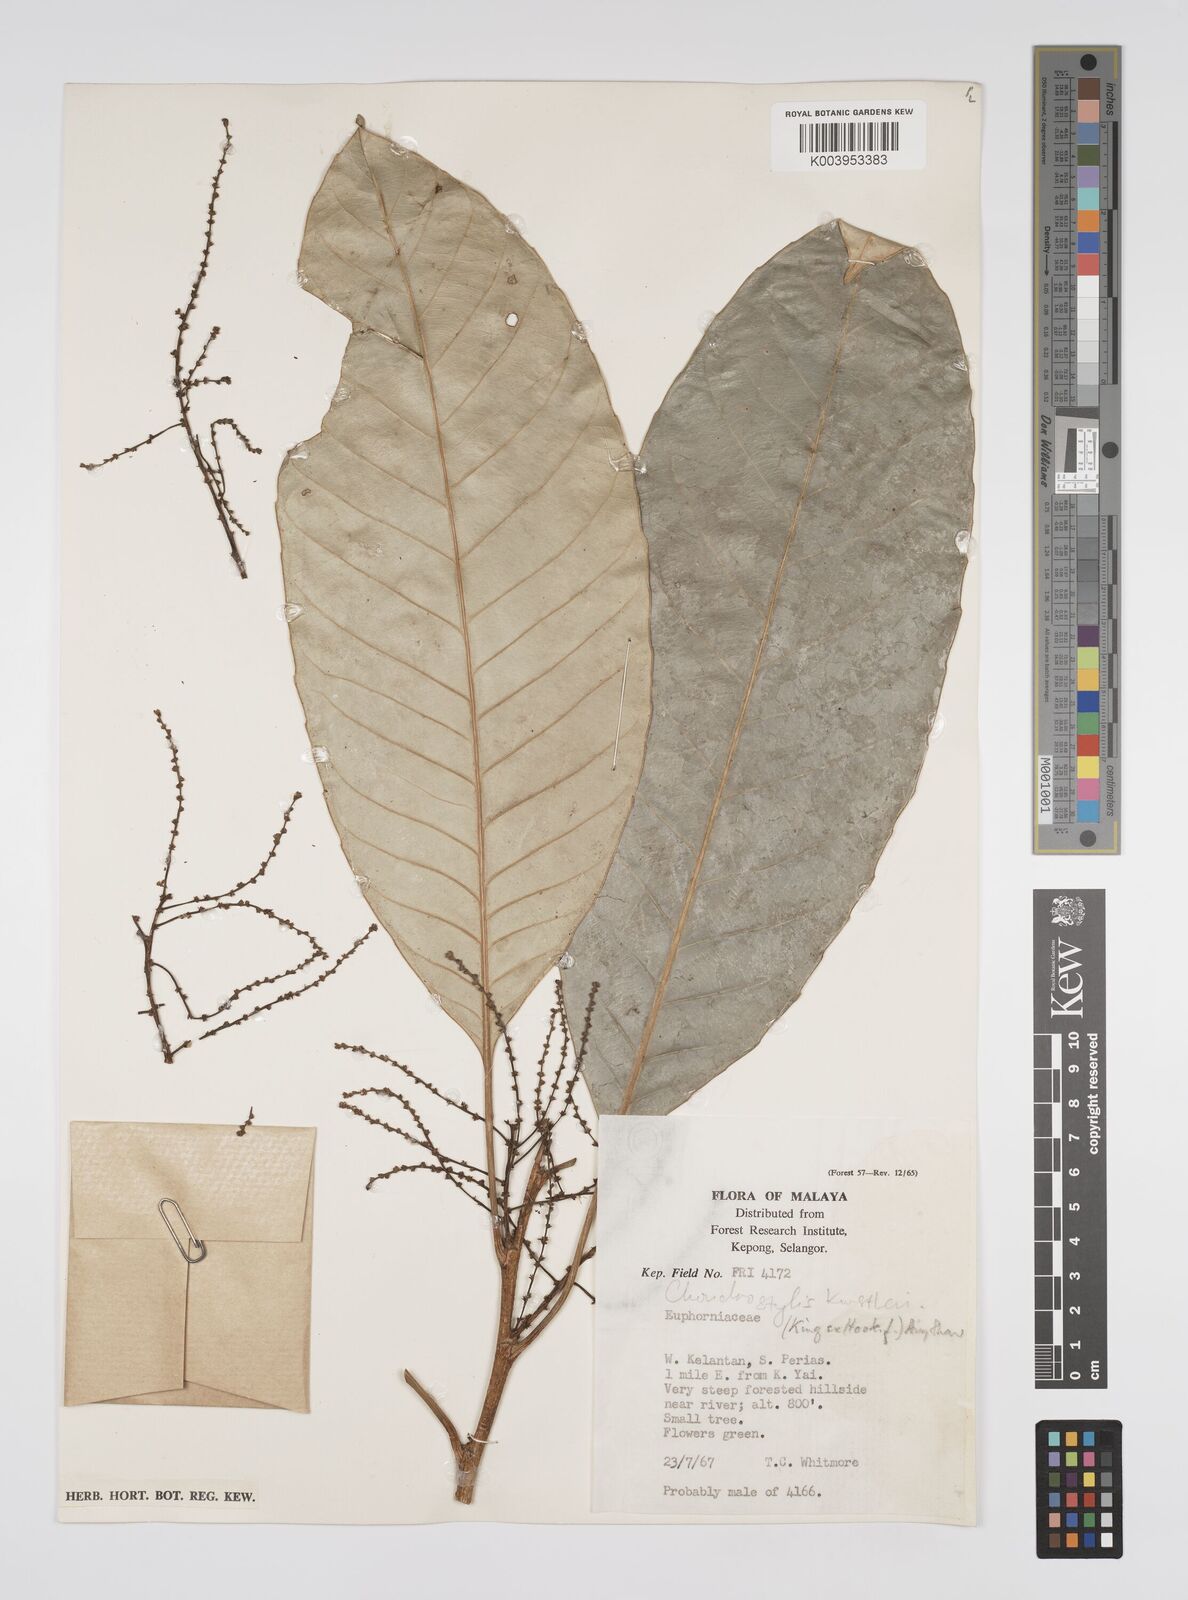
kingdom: Plantae
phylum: Tracheophyta
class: Magnoliopsida
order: Malpighiales
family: Euphorbiaceae
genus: Chondrostylis
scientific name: Chondrostylis kunstleri
